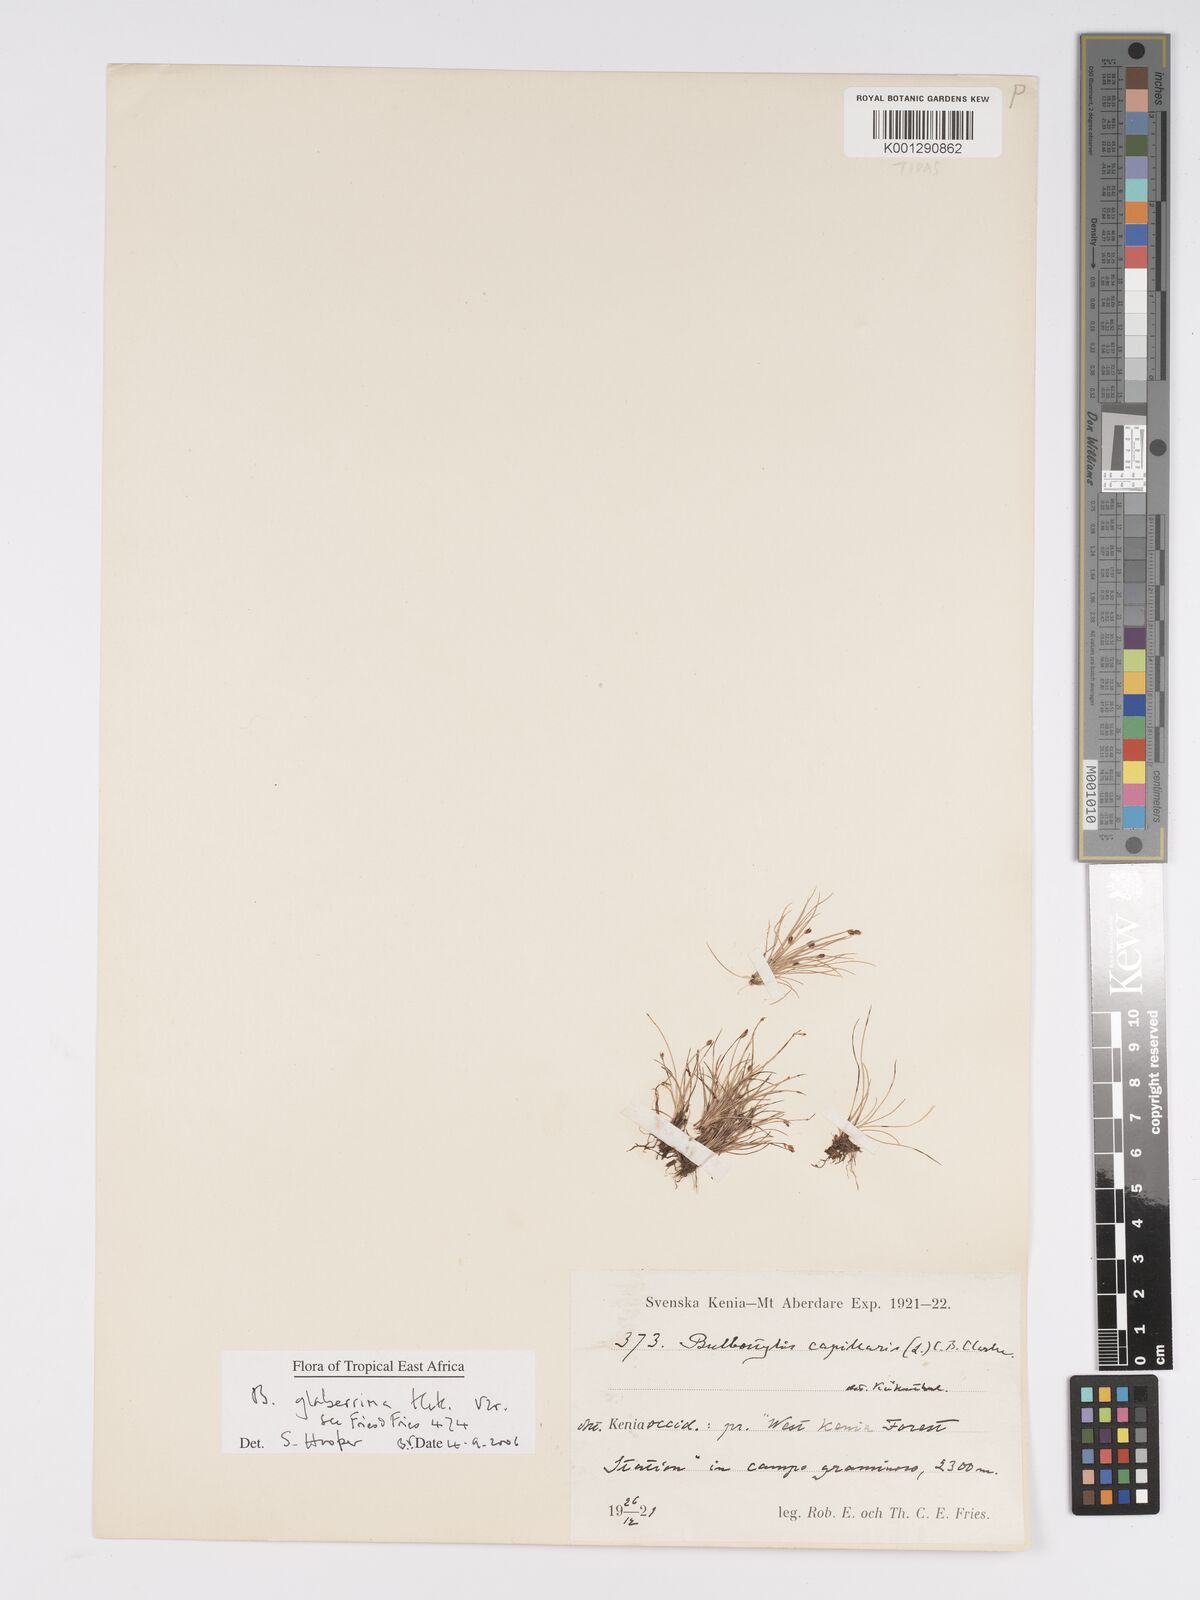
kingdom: Plantae
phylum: Tracheophyta
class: Liliopsida
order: Poales
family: Cyperaceae
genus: Bulbostylis
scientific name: Bulbostylis glaberrima
